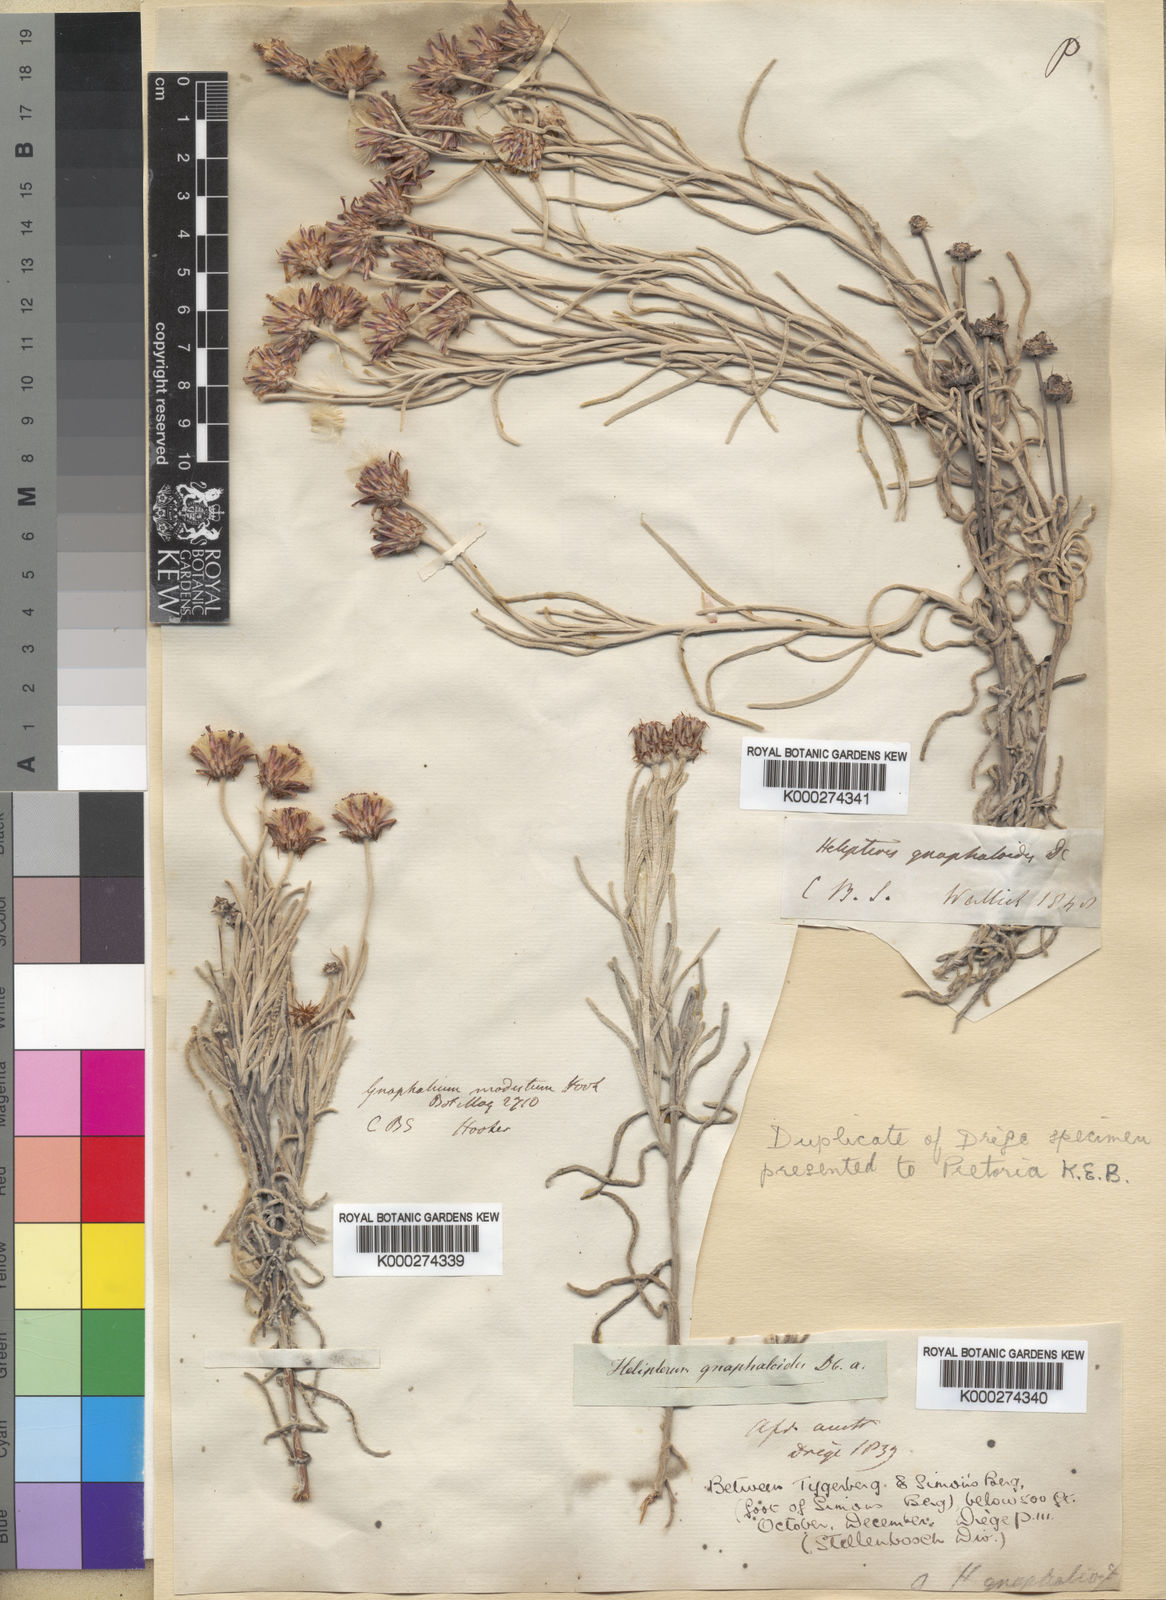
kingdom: Plantae
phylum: Tracheophyta
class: Magnoliopsida
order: Asterales
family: Asteraceae
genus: Syncarpha
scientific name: Syncarpha gnaphaloides
